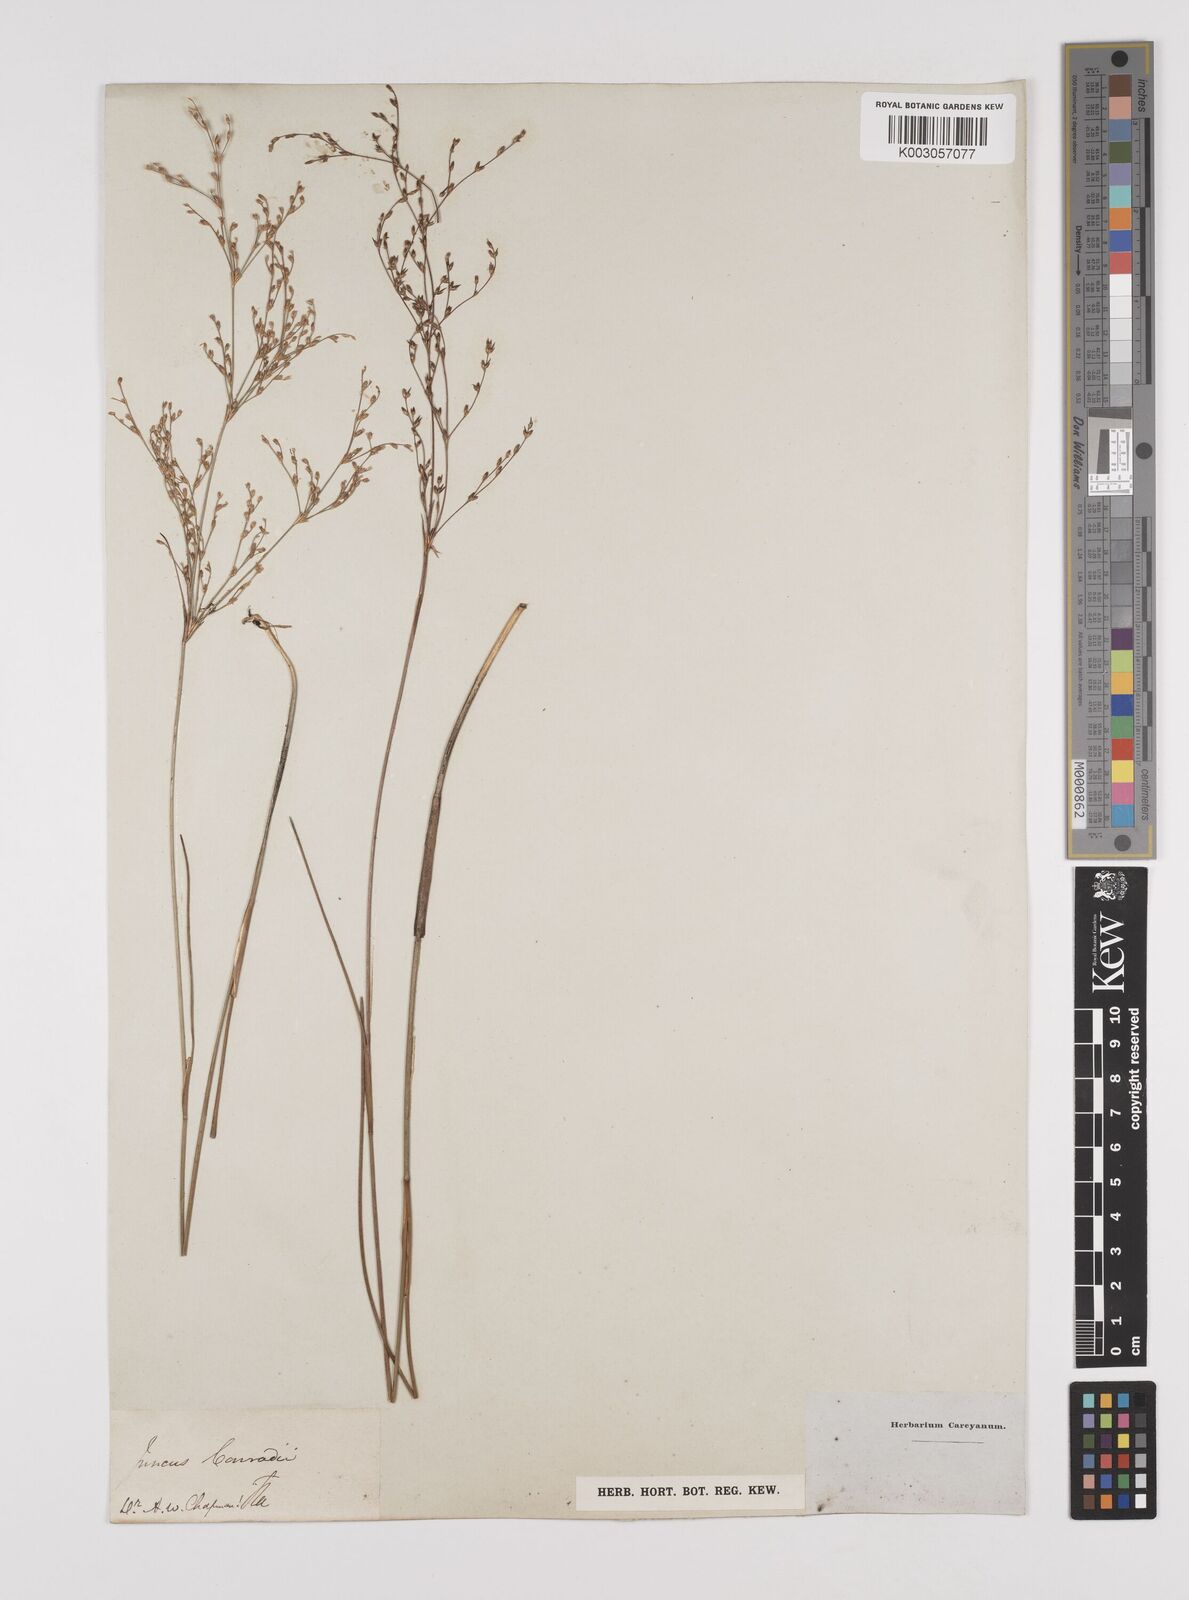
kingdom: Plantae
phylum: Tracheophyta
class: Liliopsida
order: Poales
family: Juncaceae
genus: Juncus
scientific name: Juncus pelocarpus
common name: Brown-fruited rush
